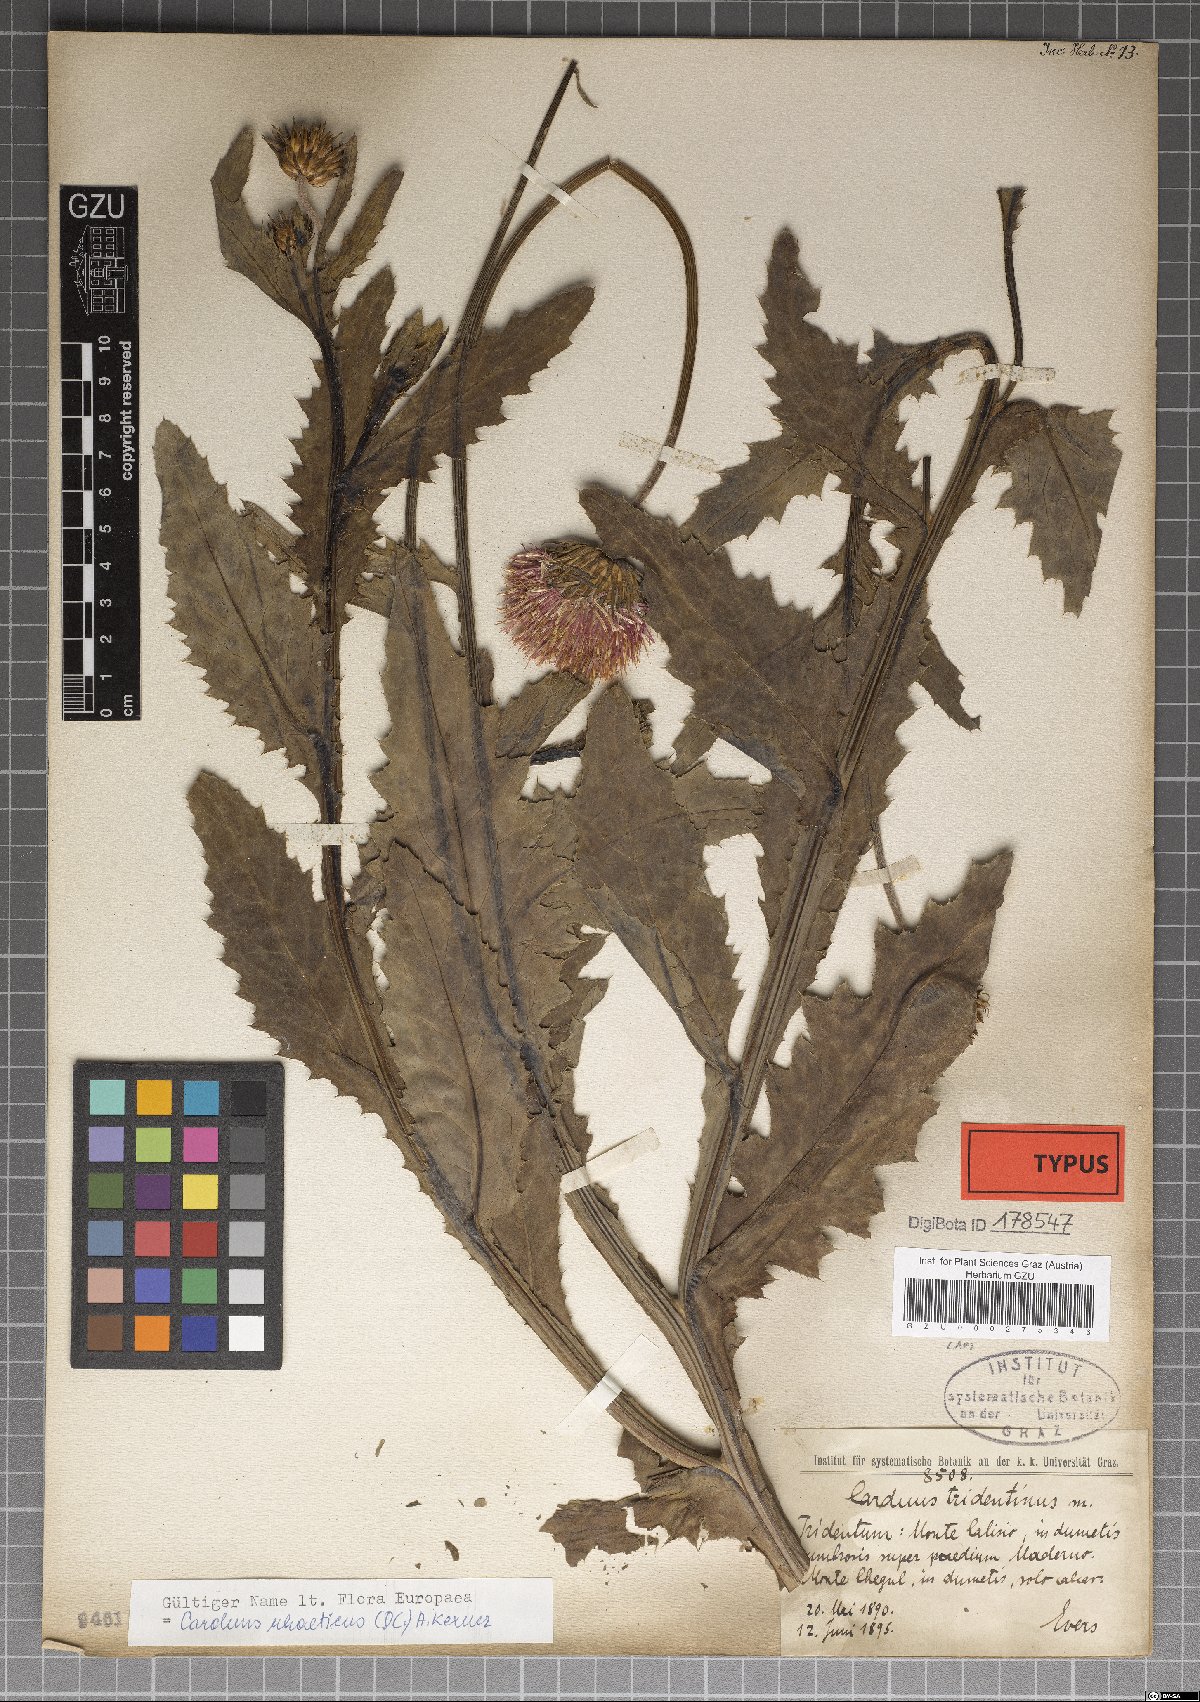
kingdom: Plantae
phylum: Tracheophyta
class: Magnoliopsida
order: Asterales
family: Asteraceae
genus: Carduus
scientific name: Carduus defloratus
